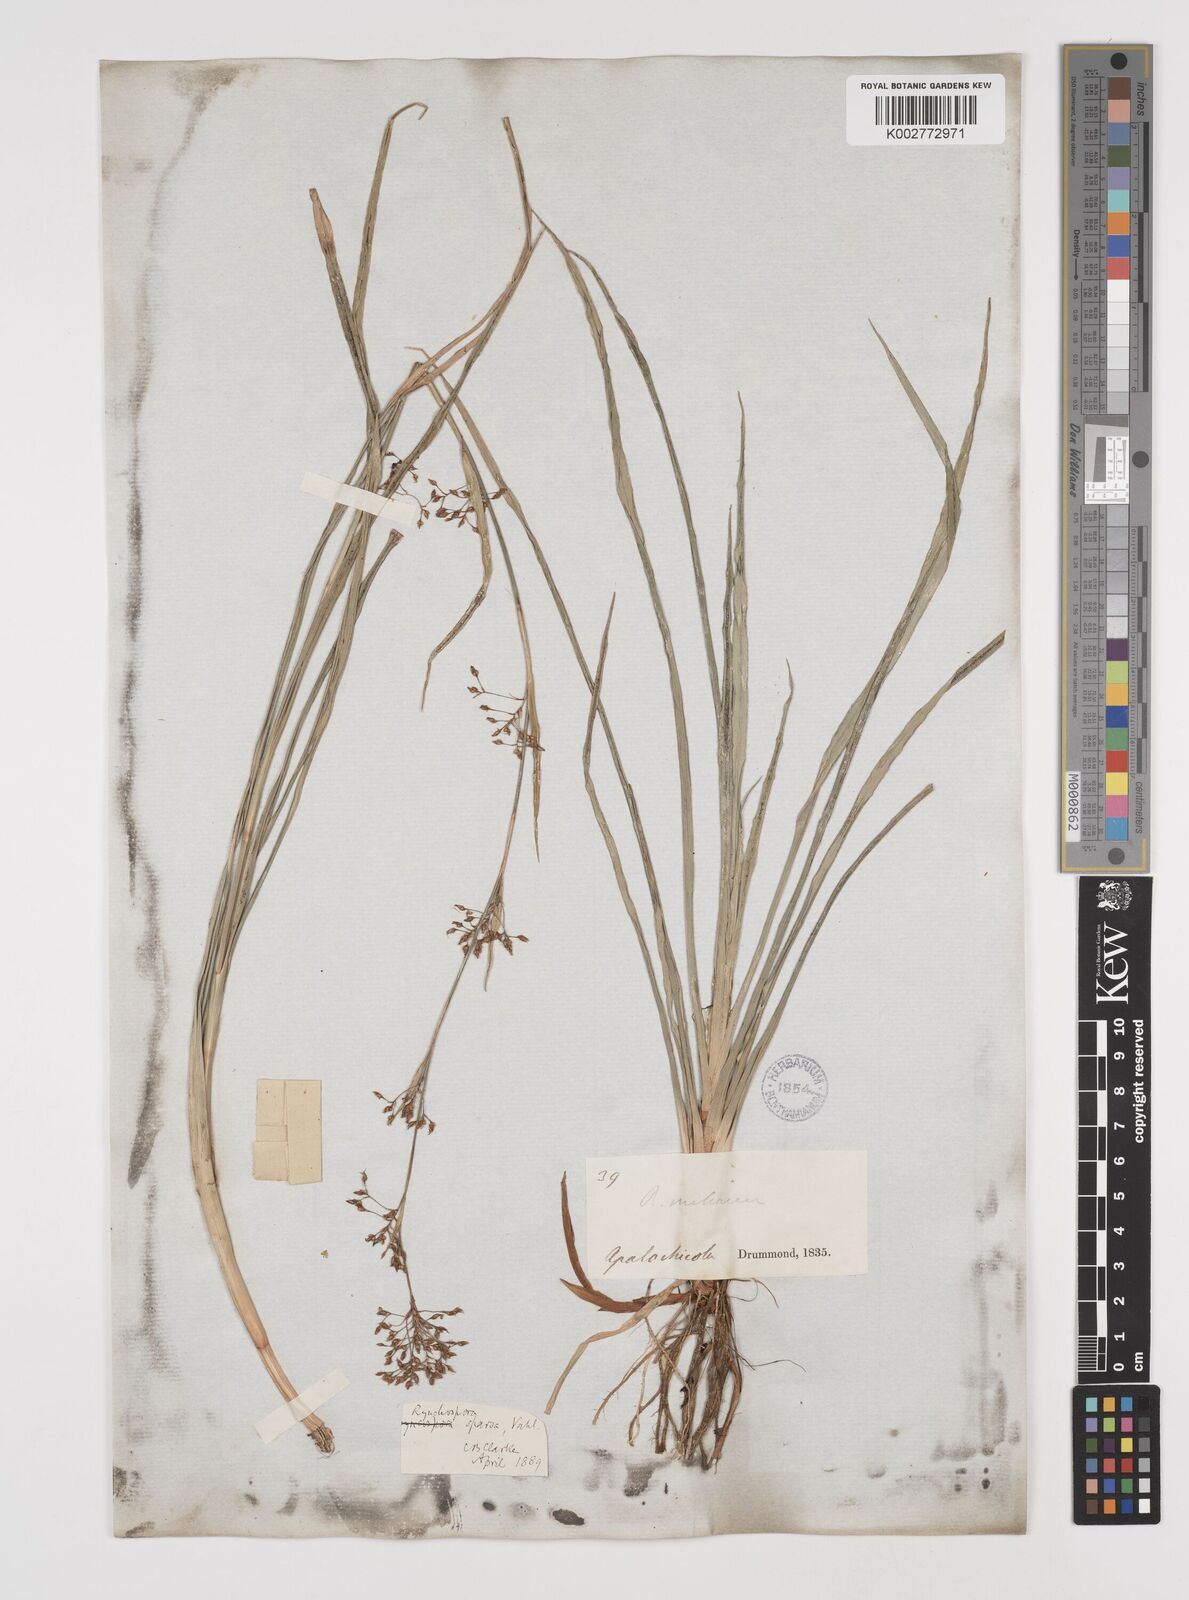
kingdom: Plantae
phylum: Tracheophyta
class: Liliopsida
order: Poales
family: Cyperaceae
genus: Rhynchospora
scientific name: Rhynchospora miliacea
